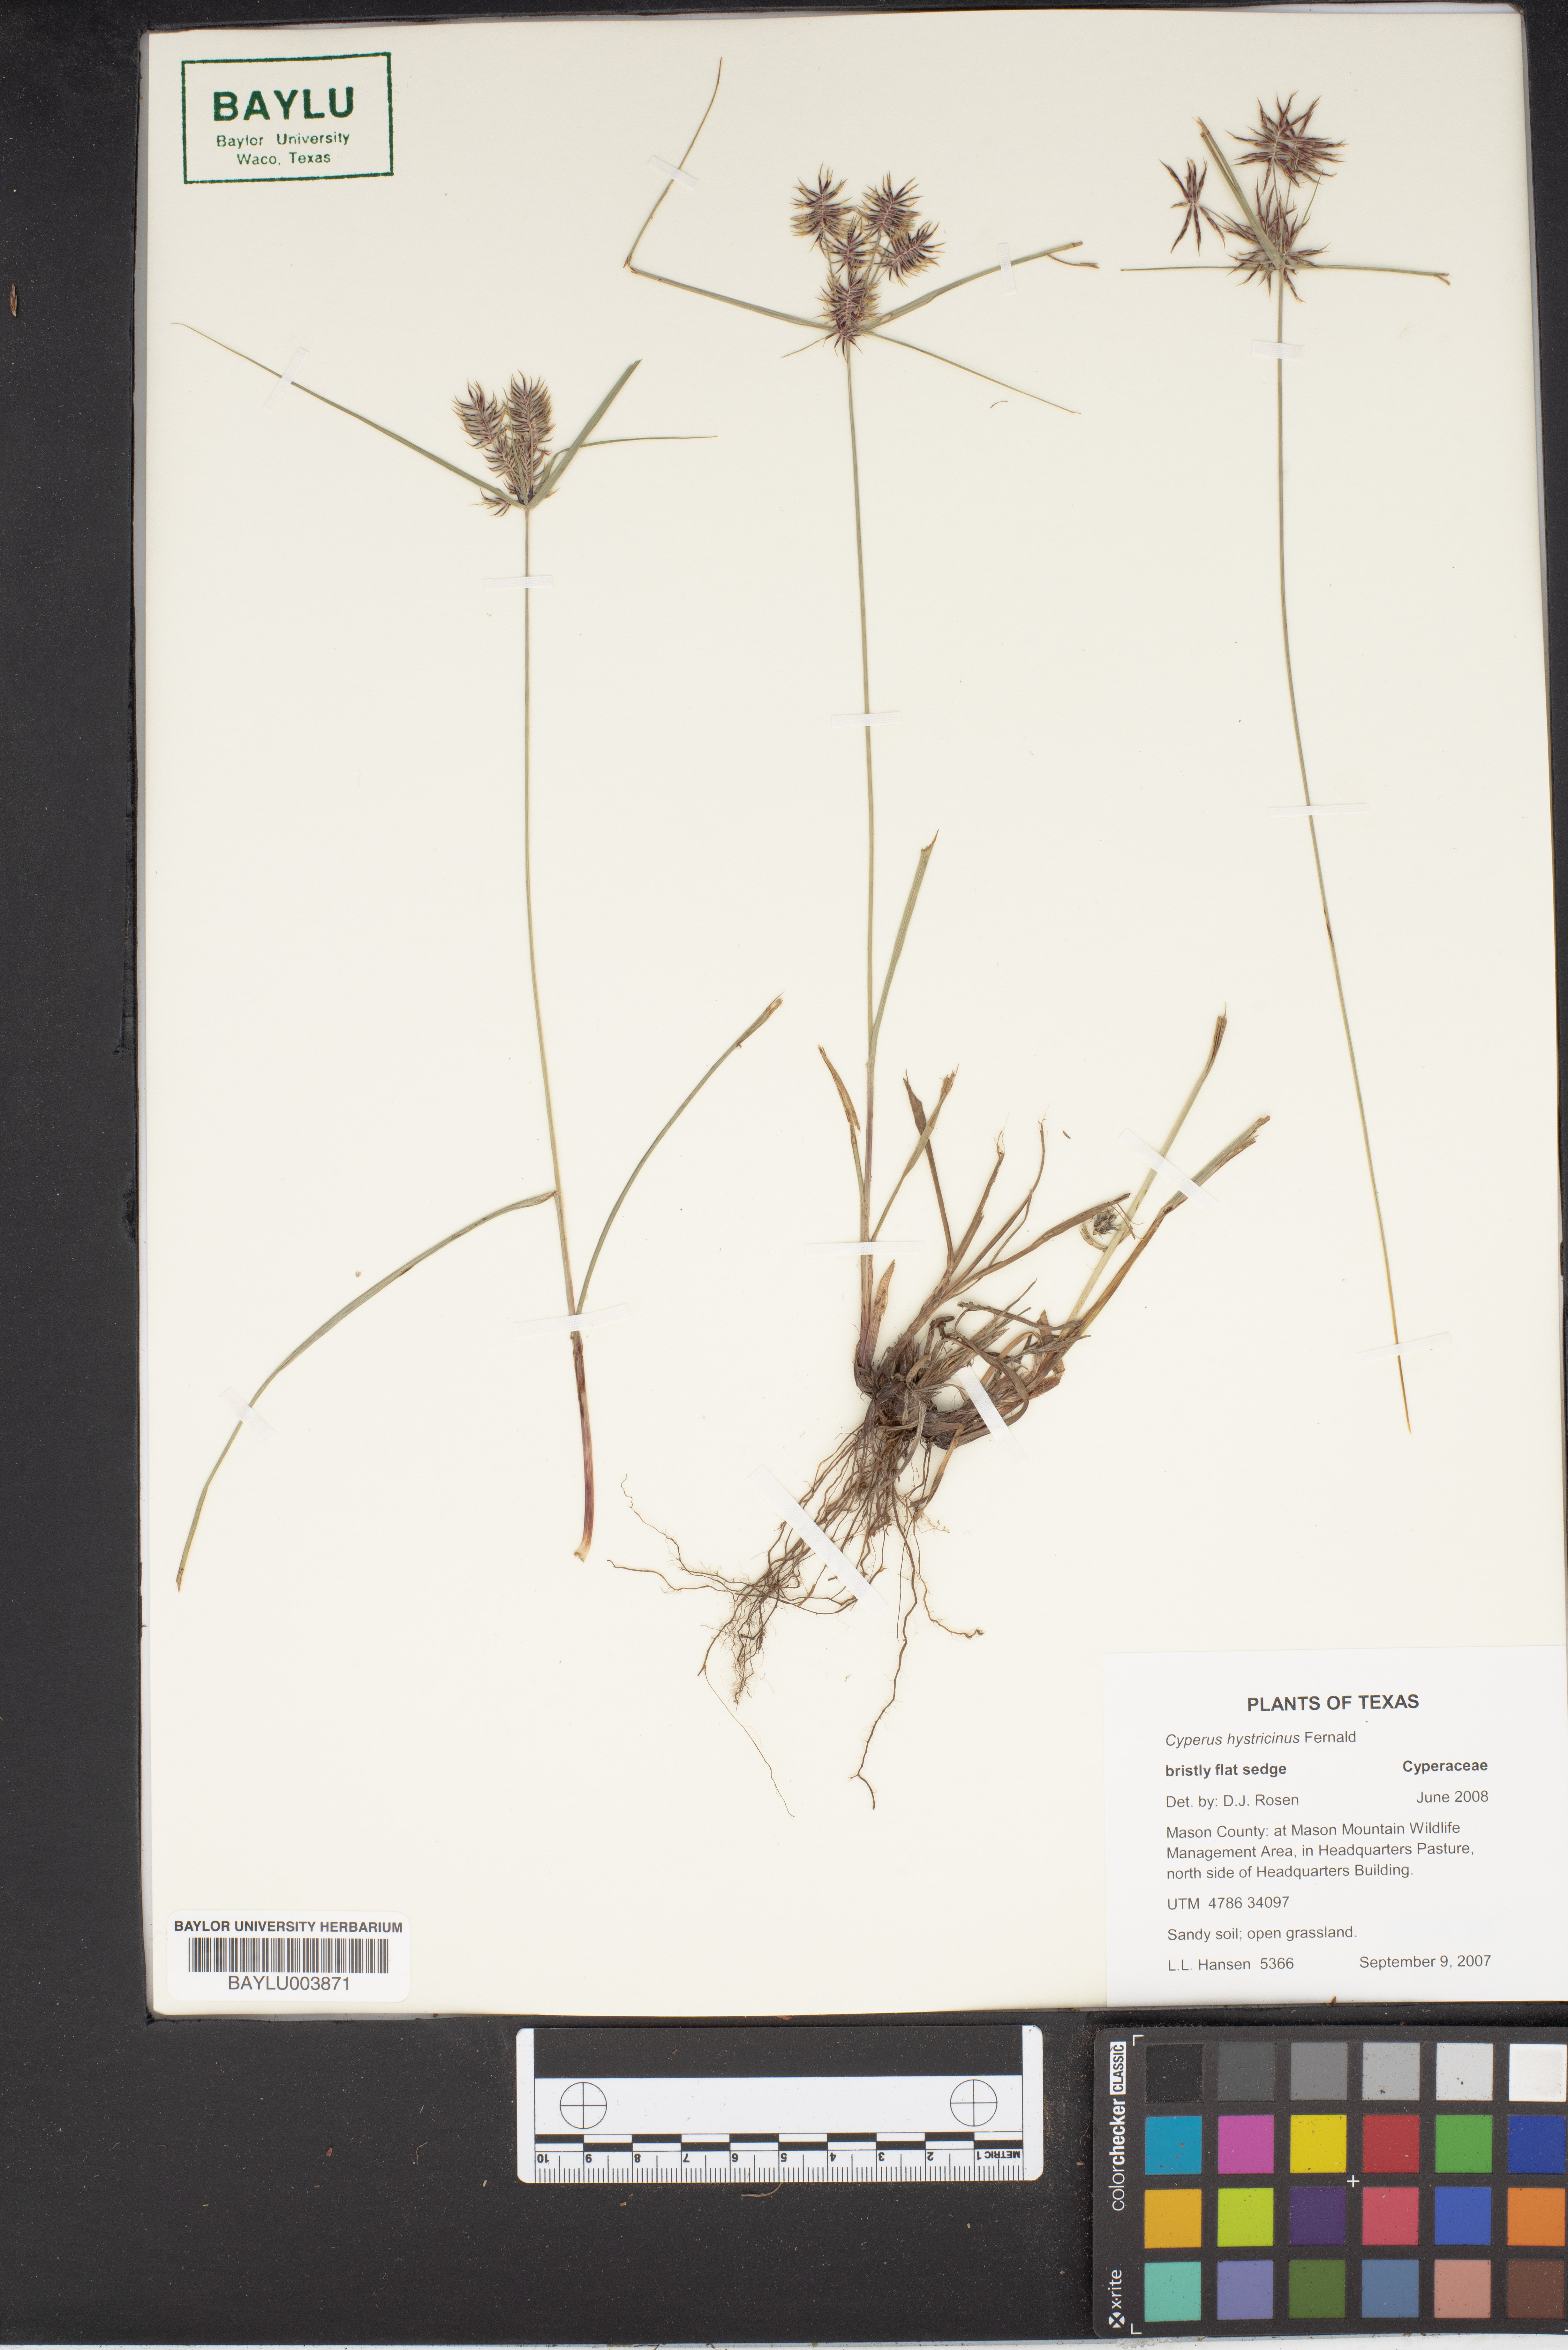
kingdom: Plantae
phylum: Tracheophyta
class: Liliopsida
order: Poales
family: Cyperaceae
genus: Cyperus
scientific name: Cyperus hystricinus
